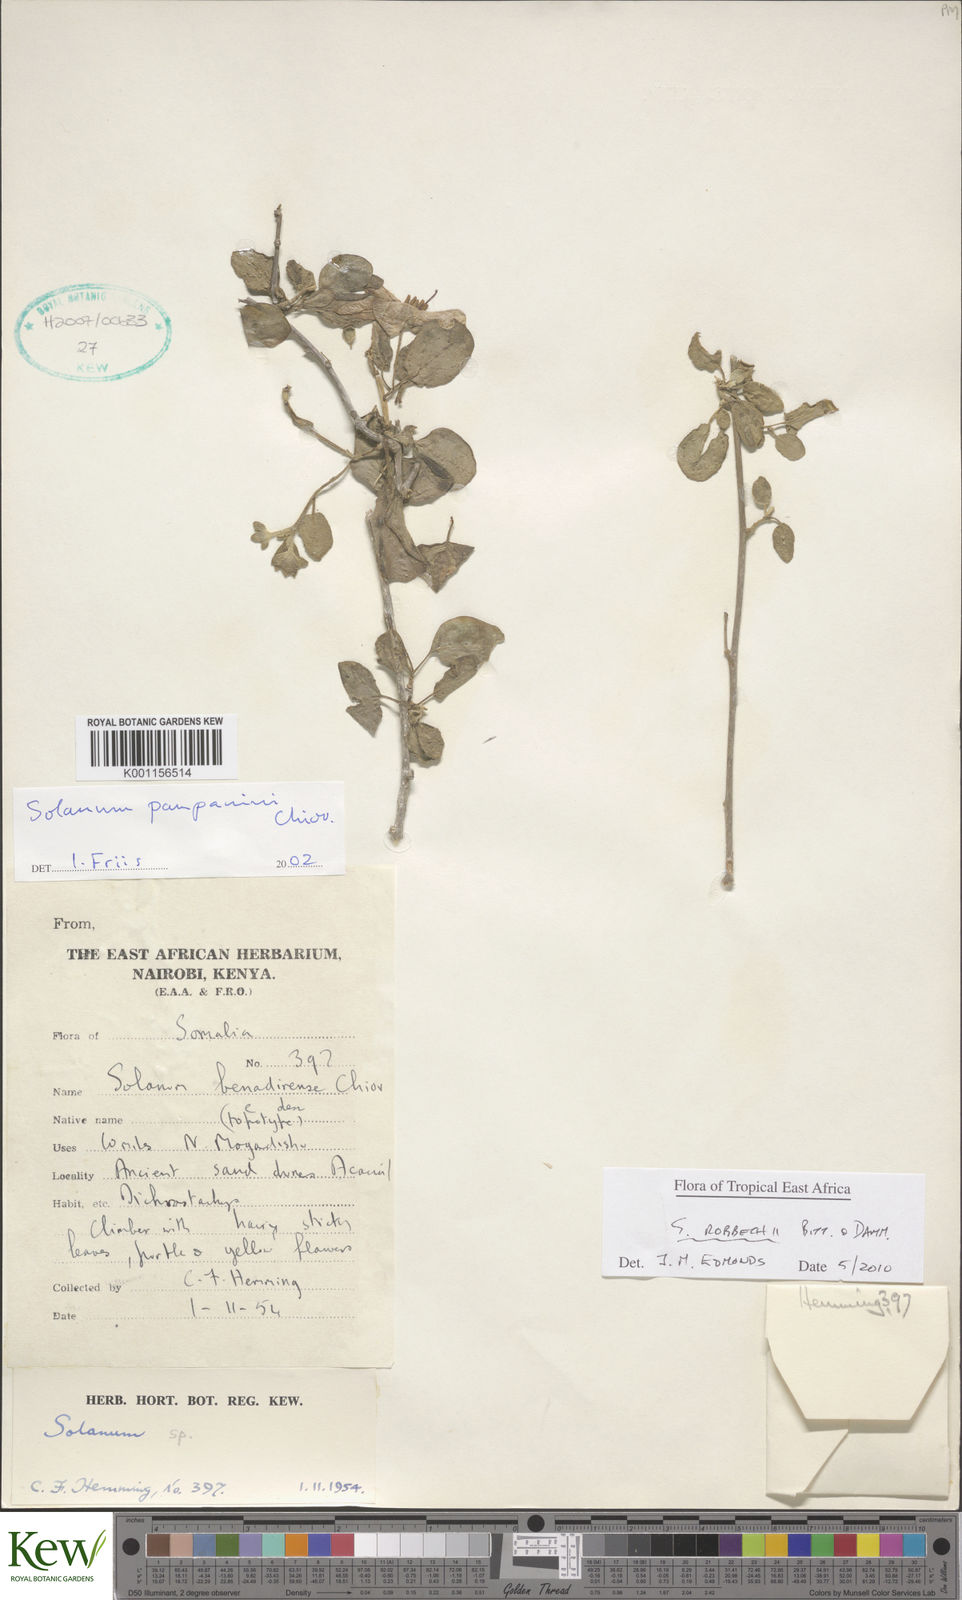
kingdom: Plantae
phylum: Tracheophyta
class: Magnoliopsida
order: Solanales
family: Solanaceae
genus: Solanum
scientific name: Solanum pampaninii
